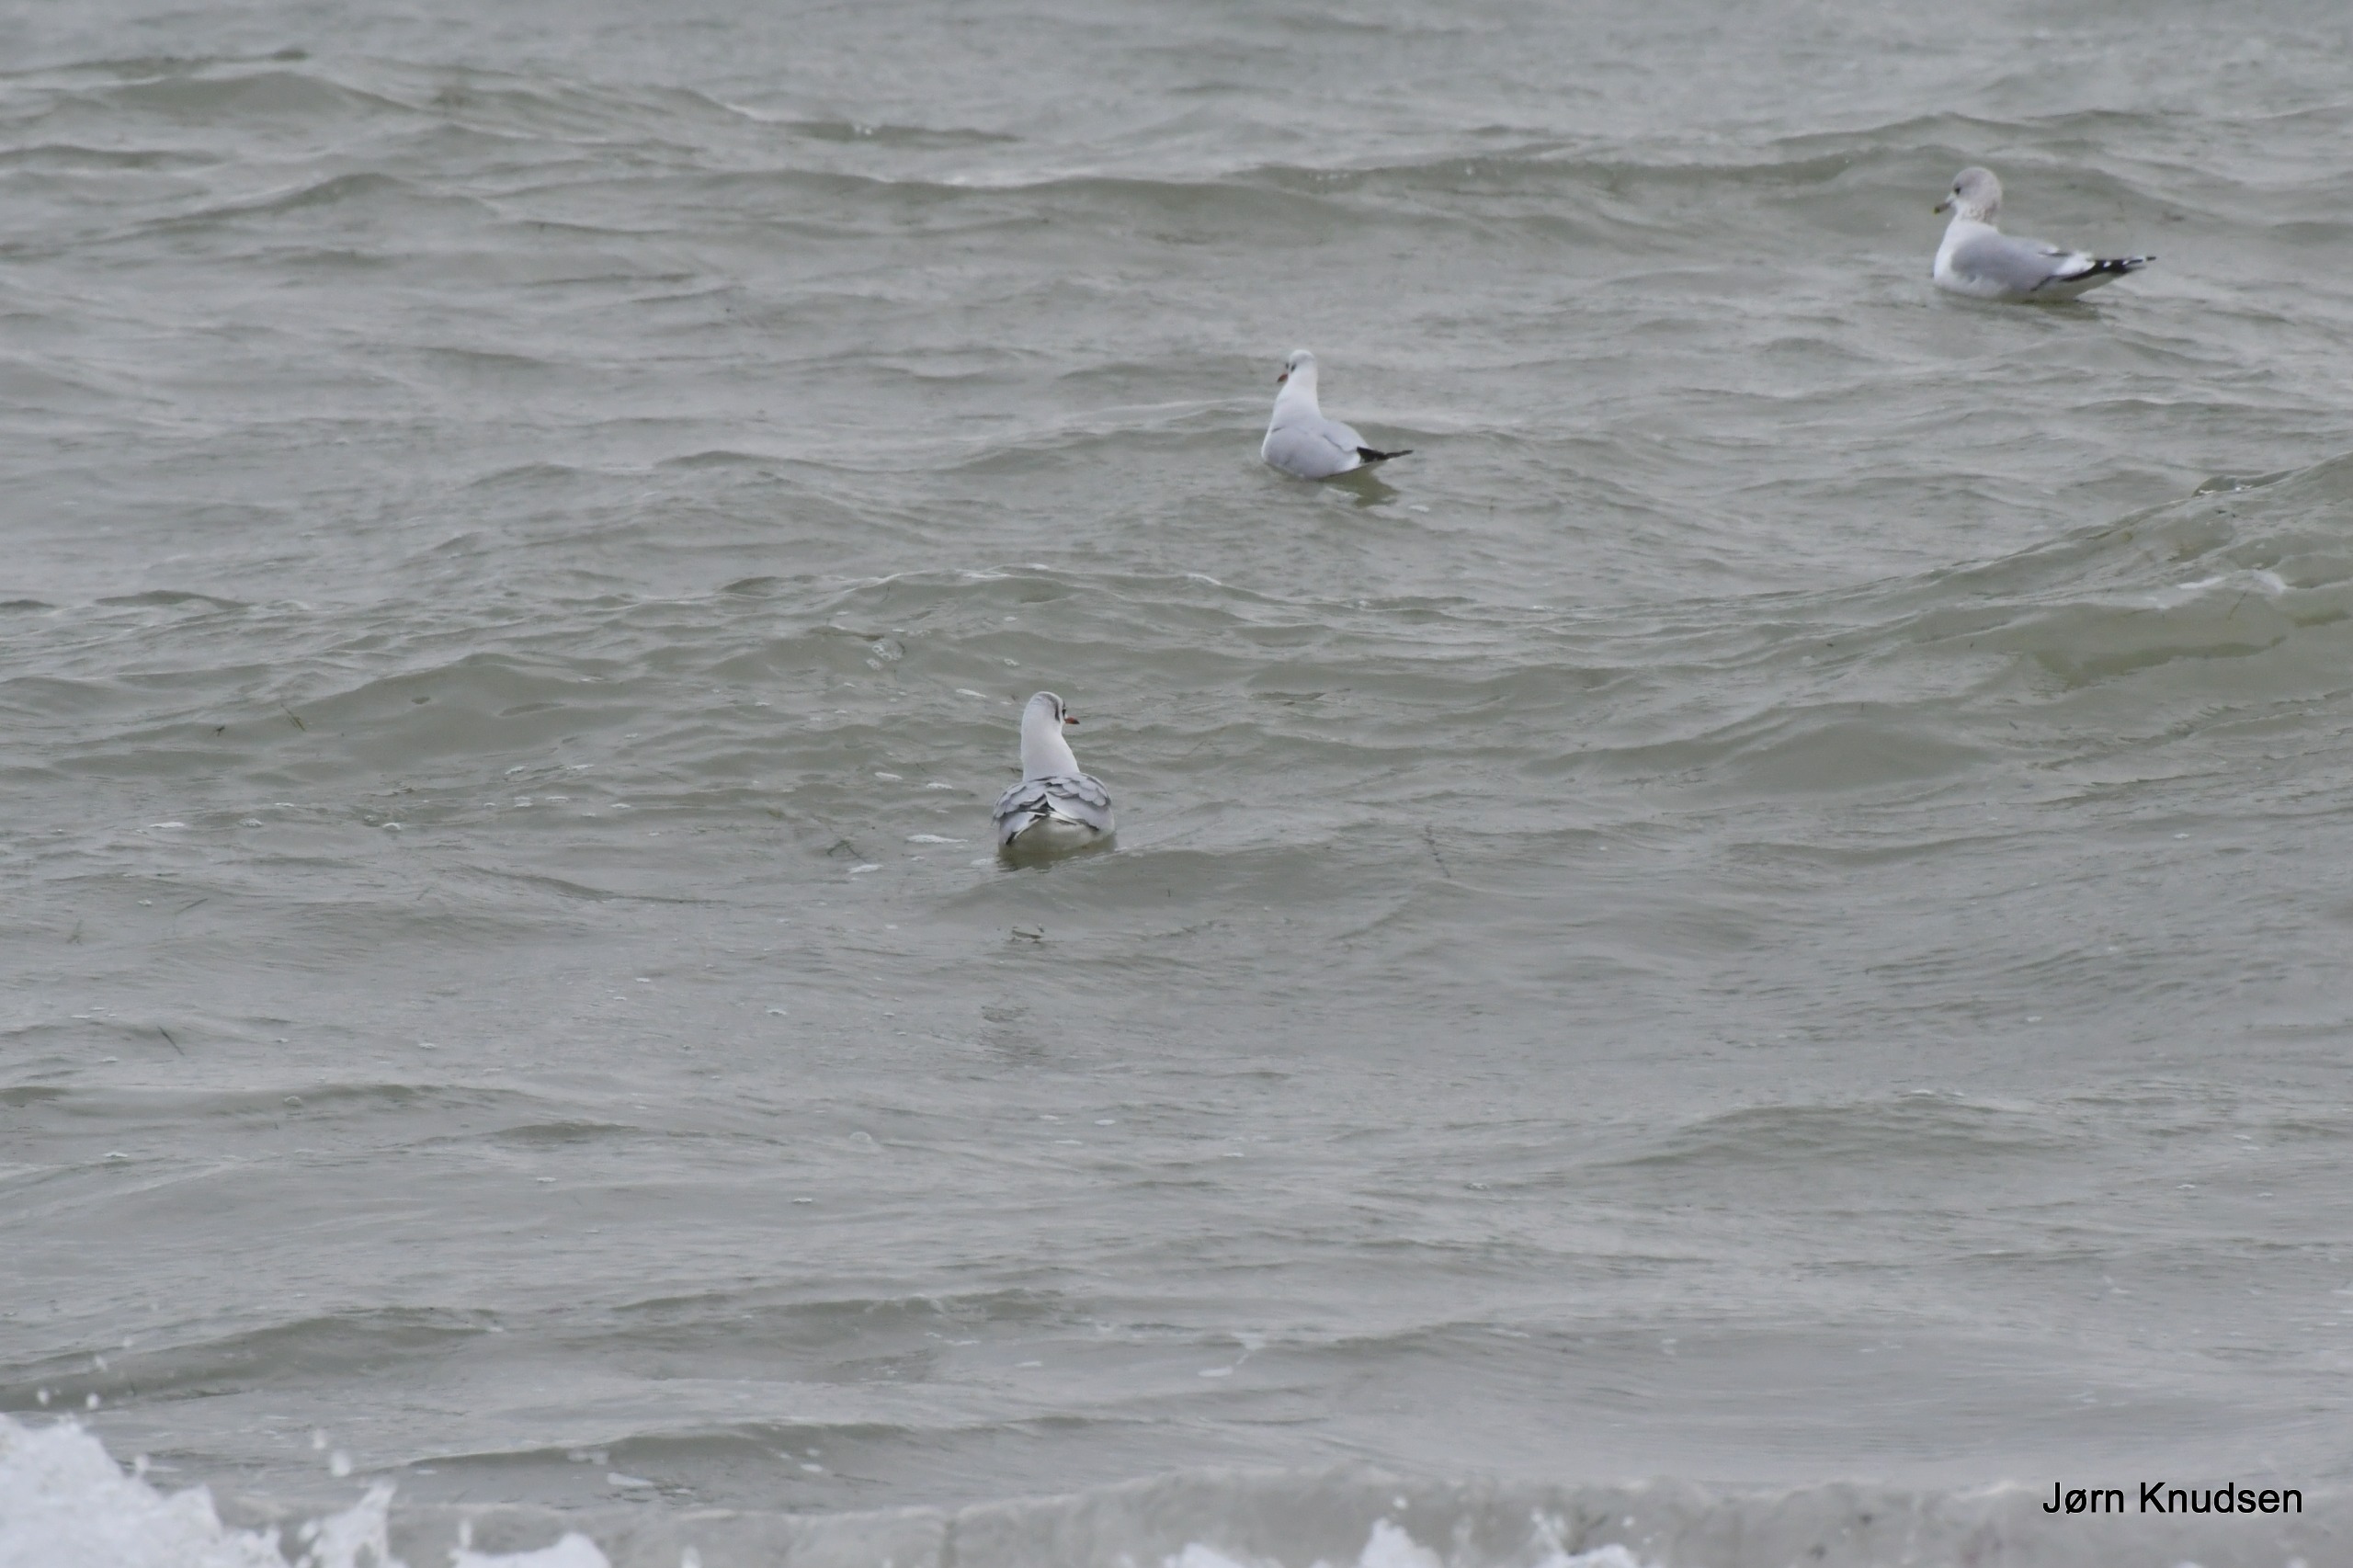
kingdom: Animalia
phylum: Chordata
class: Aves
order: Charadriiformes
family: Laridae
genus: Chroicocephalus
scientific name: Chroicocephalus ridibundus
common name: Hættemåge
